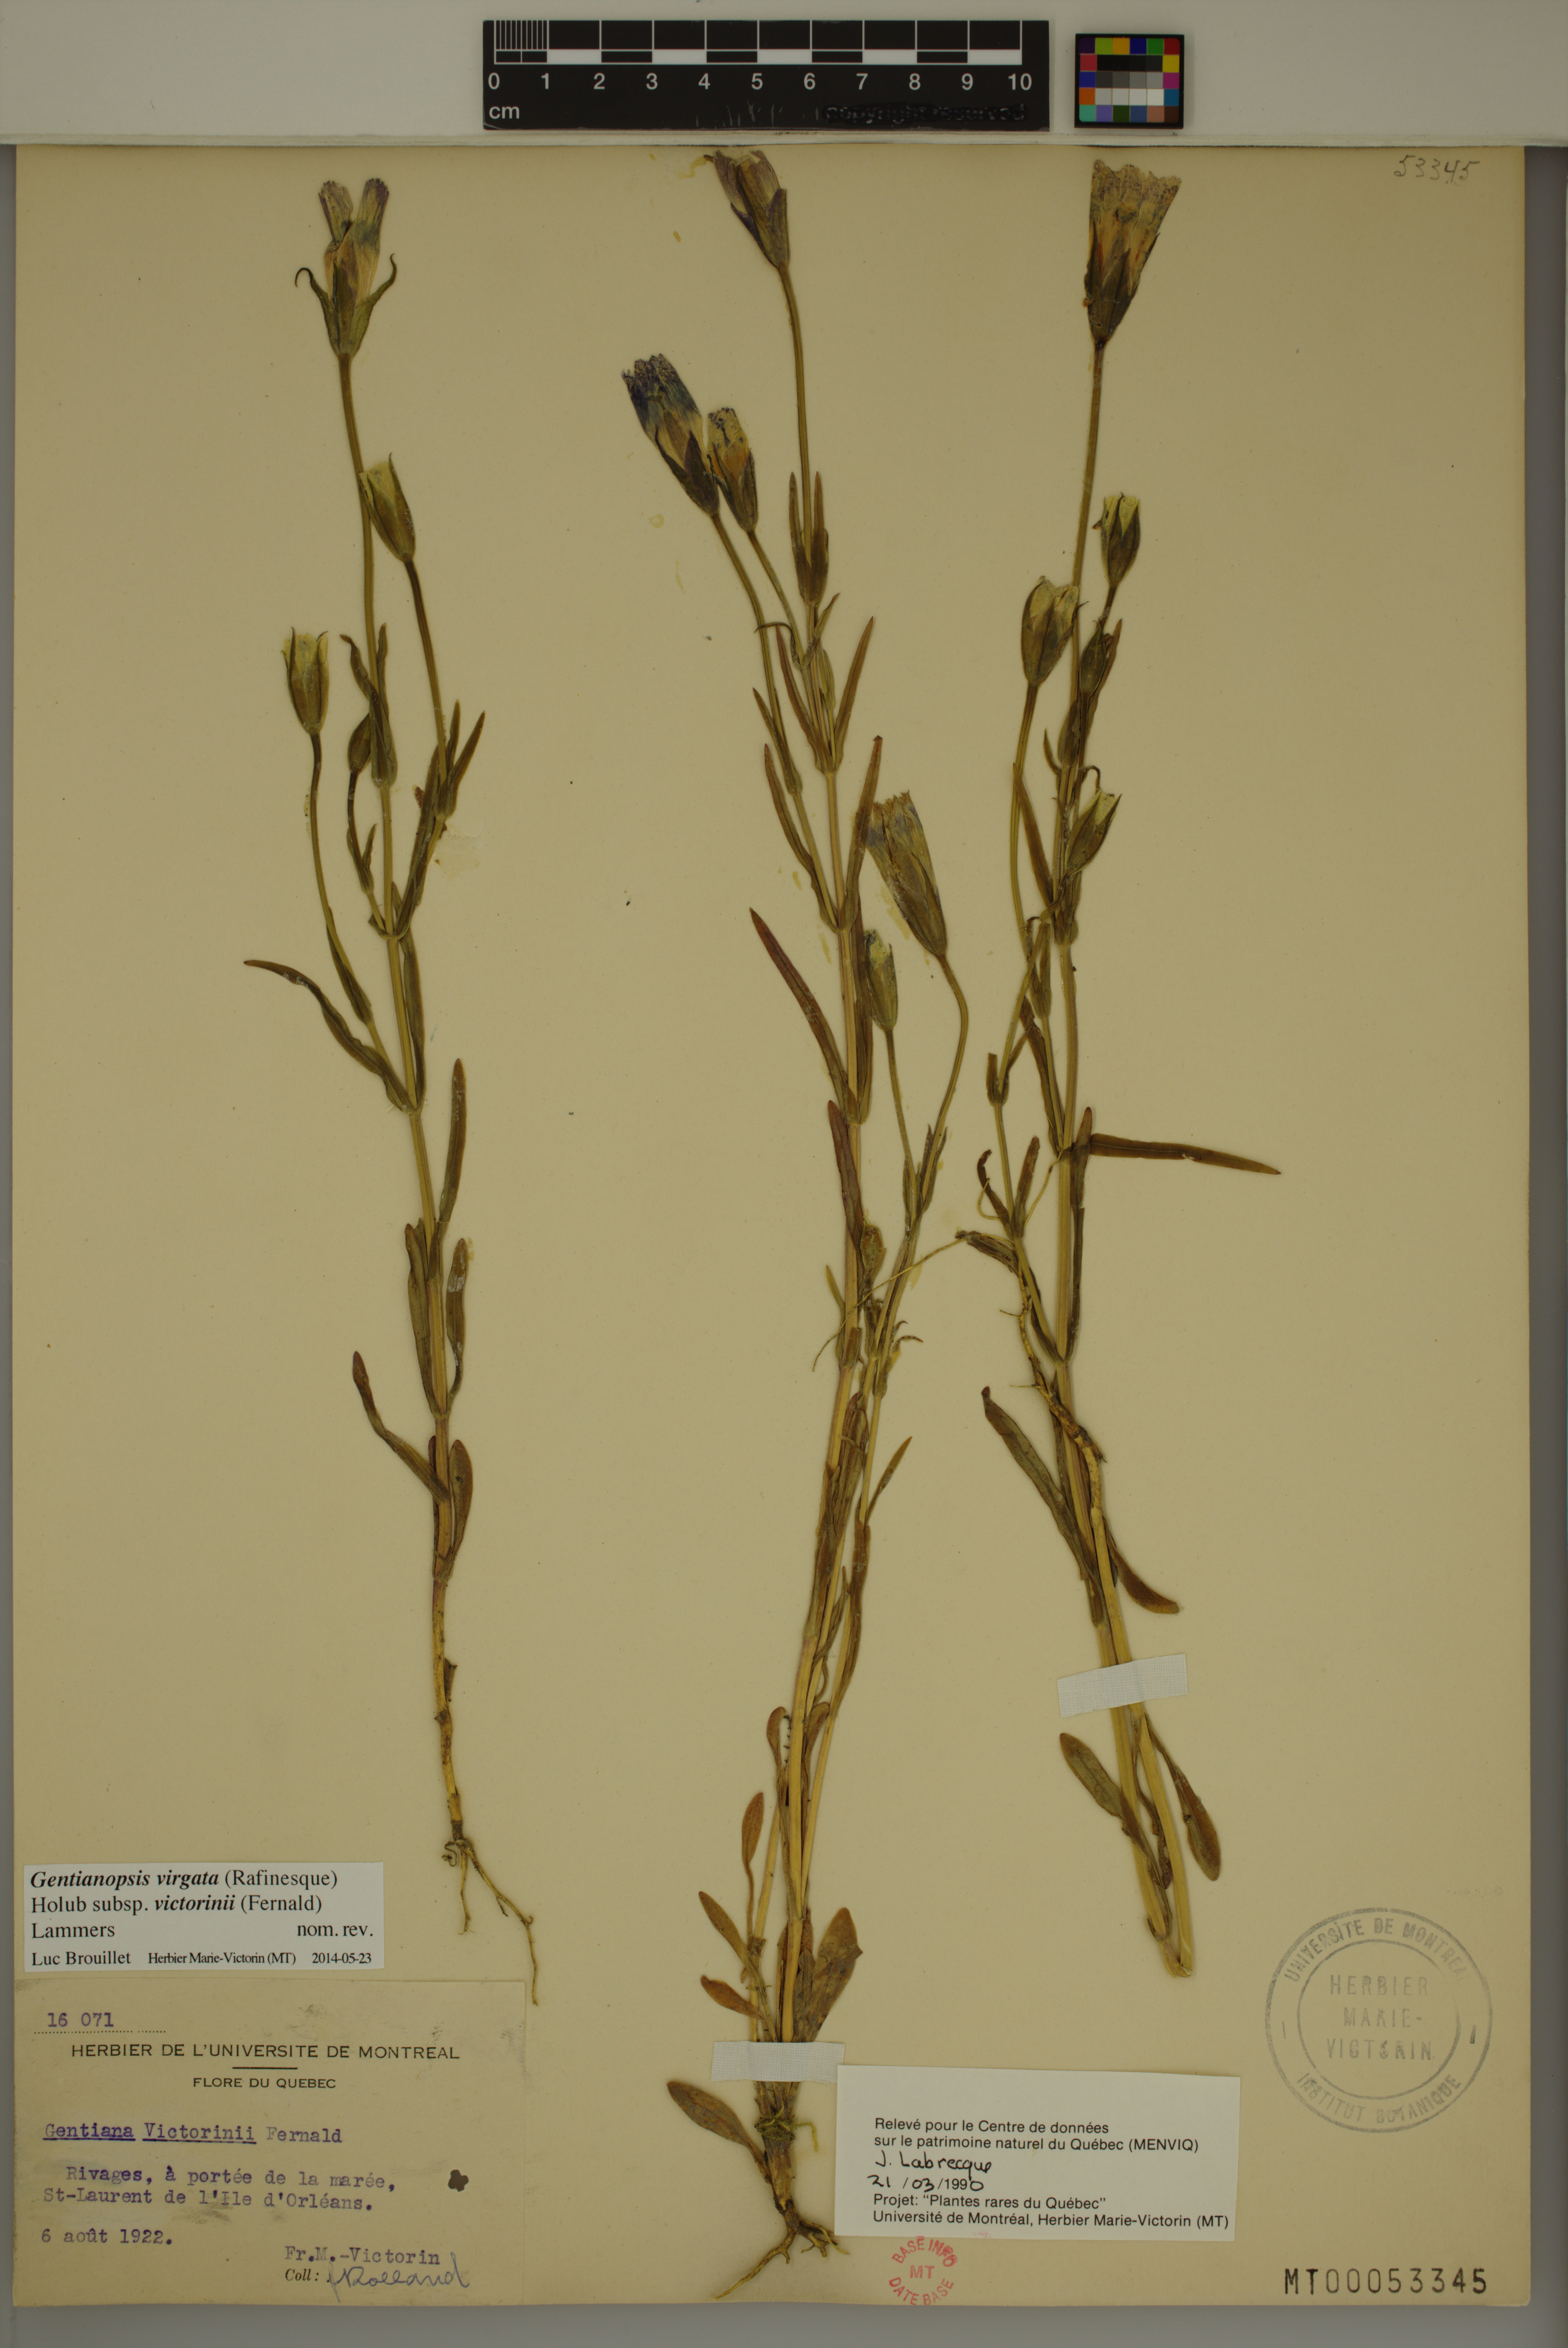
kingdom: Plantae
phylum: Tracheophyta
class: Magnoliopsida
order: Gentianales
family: Gentianaceae
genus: Gentianopsis
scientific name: Gentianopsis victorinii
